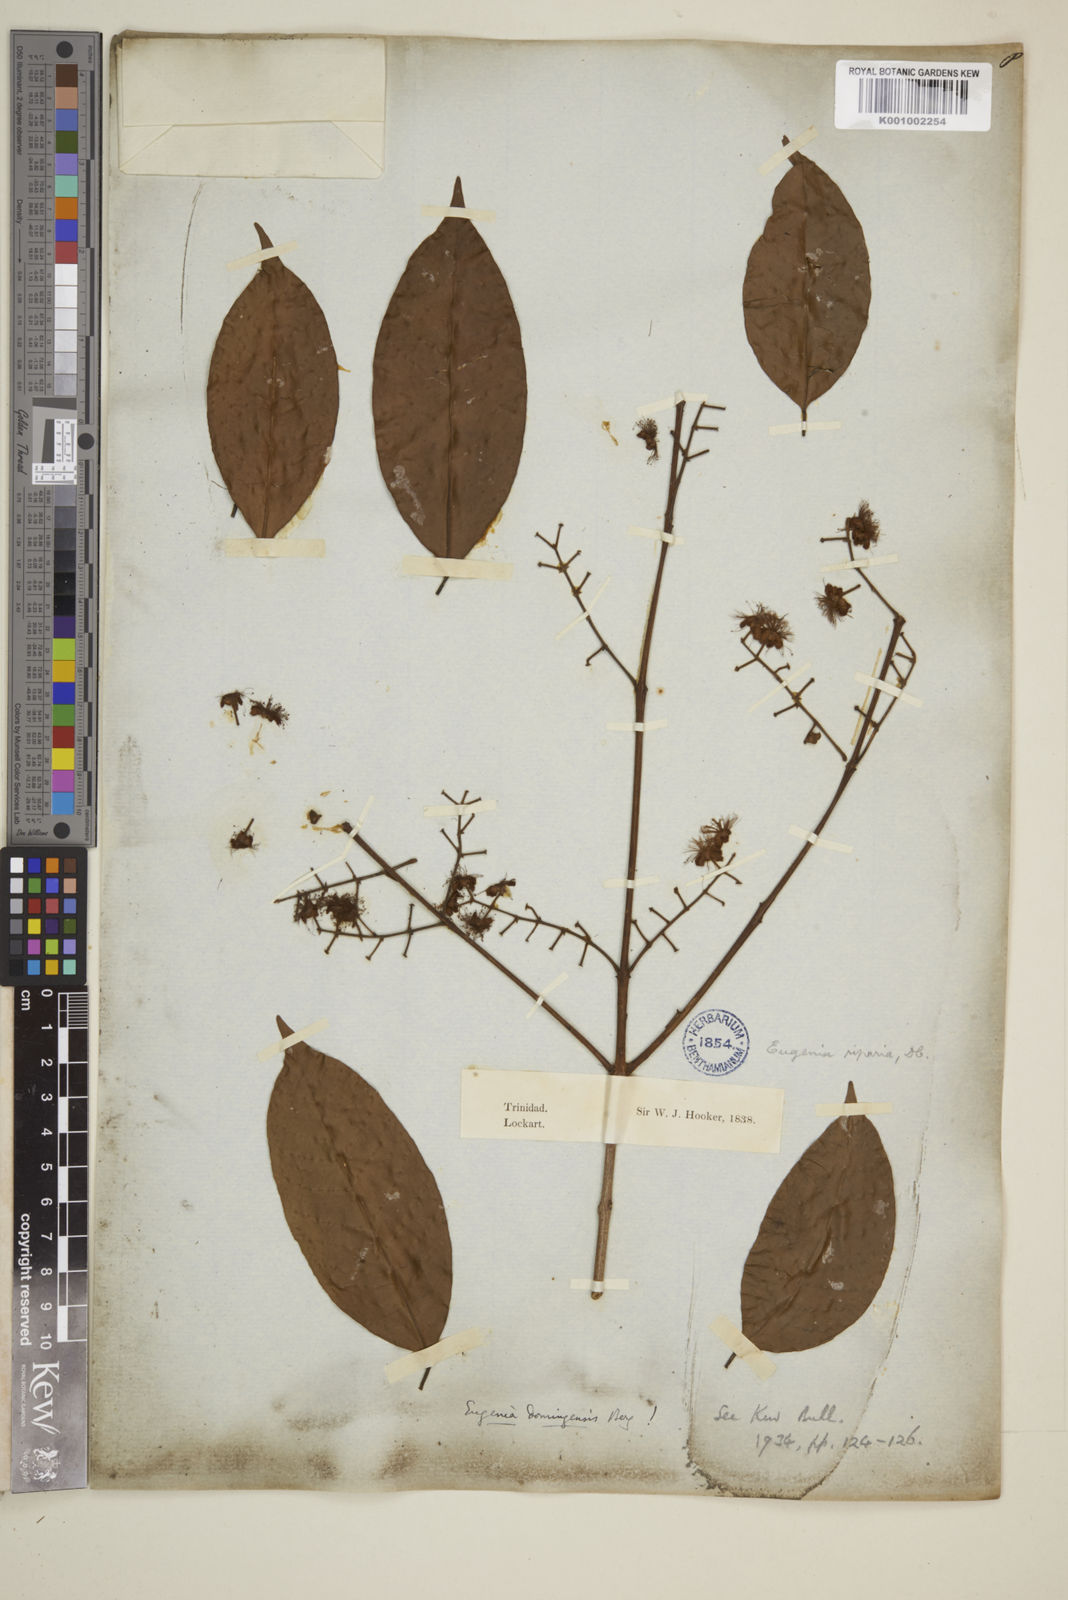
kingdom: Plantae
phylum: Tracheophyta
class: Magnoliopsida
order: Myrtales
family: Myrtaceae
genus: Eugenia
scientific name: Eugenia domingensis
